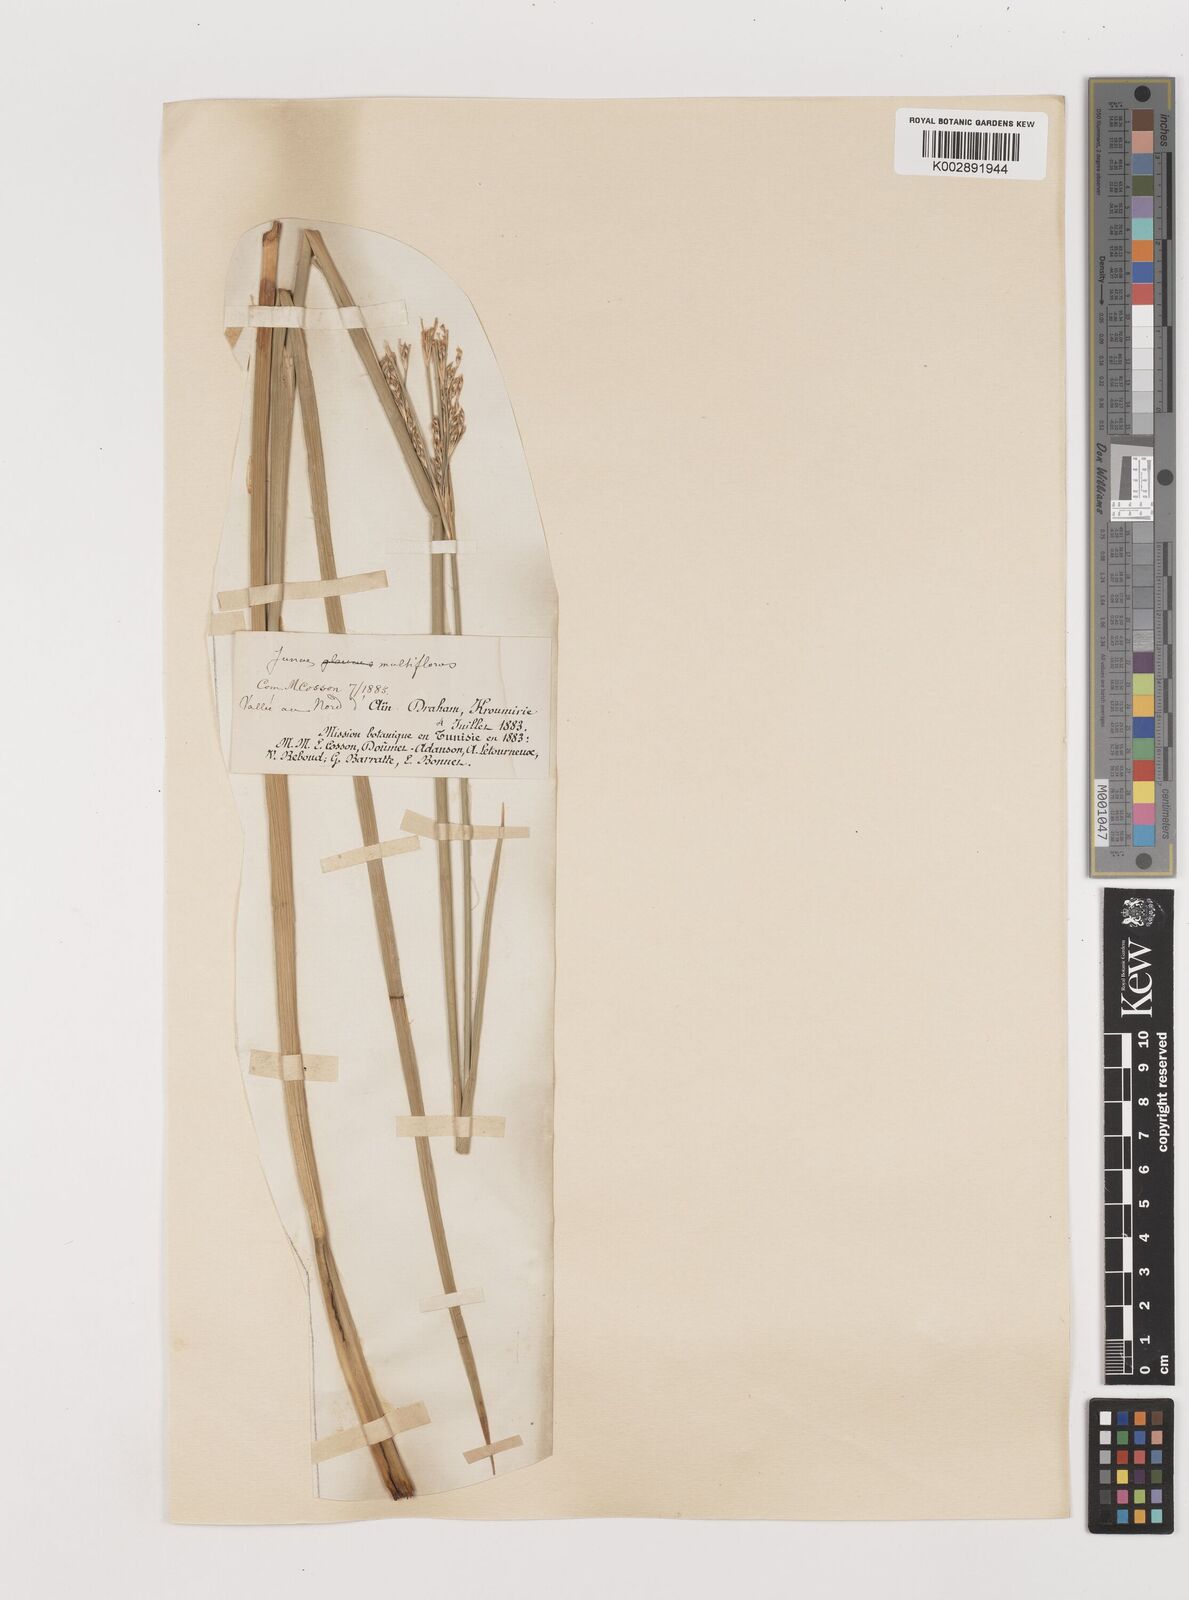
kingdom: Plantae
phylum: Tracheophyta
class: Liliopsida
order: Poales
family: Juncaceae
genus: Juncus
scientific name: Juncus subulatus
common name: Somerset rush
